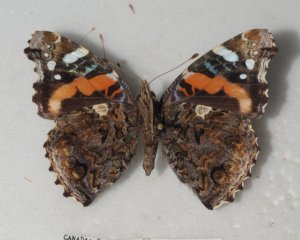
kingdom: Animalia
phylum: Arthropoda
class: Insecta
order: Lepidoptera
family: Nymphalidae
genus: Vanessa
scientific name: Vanessa atalanta
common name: Red Admiral
